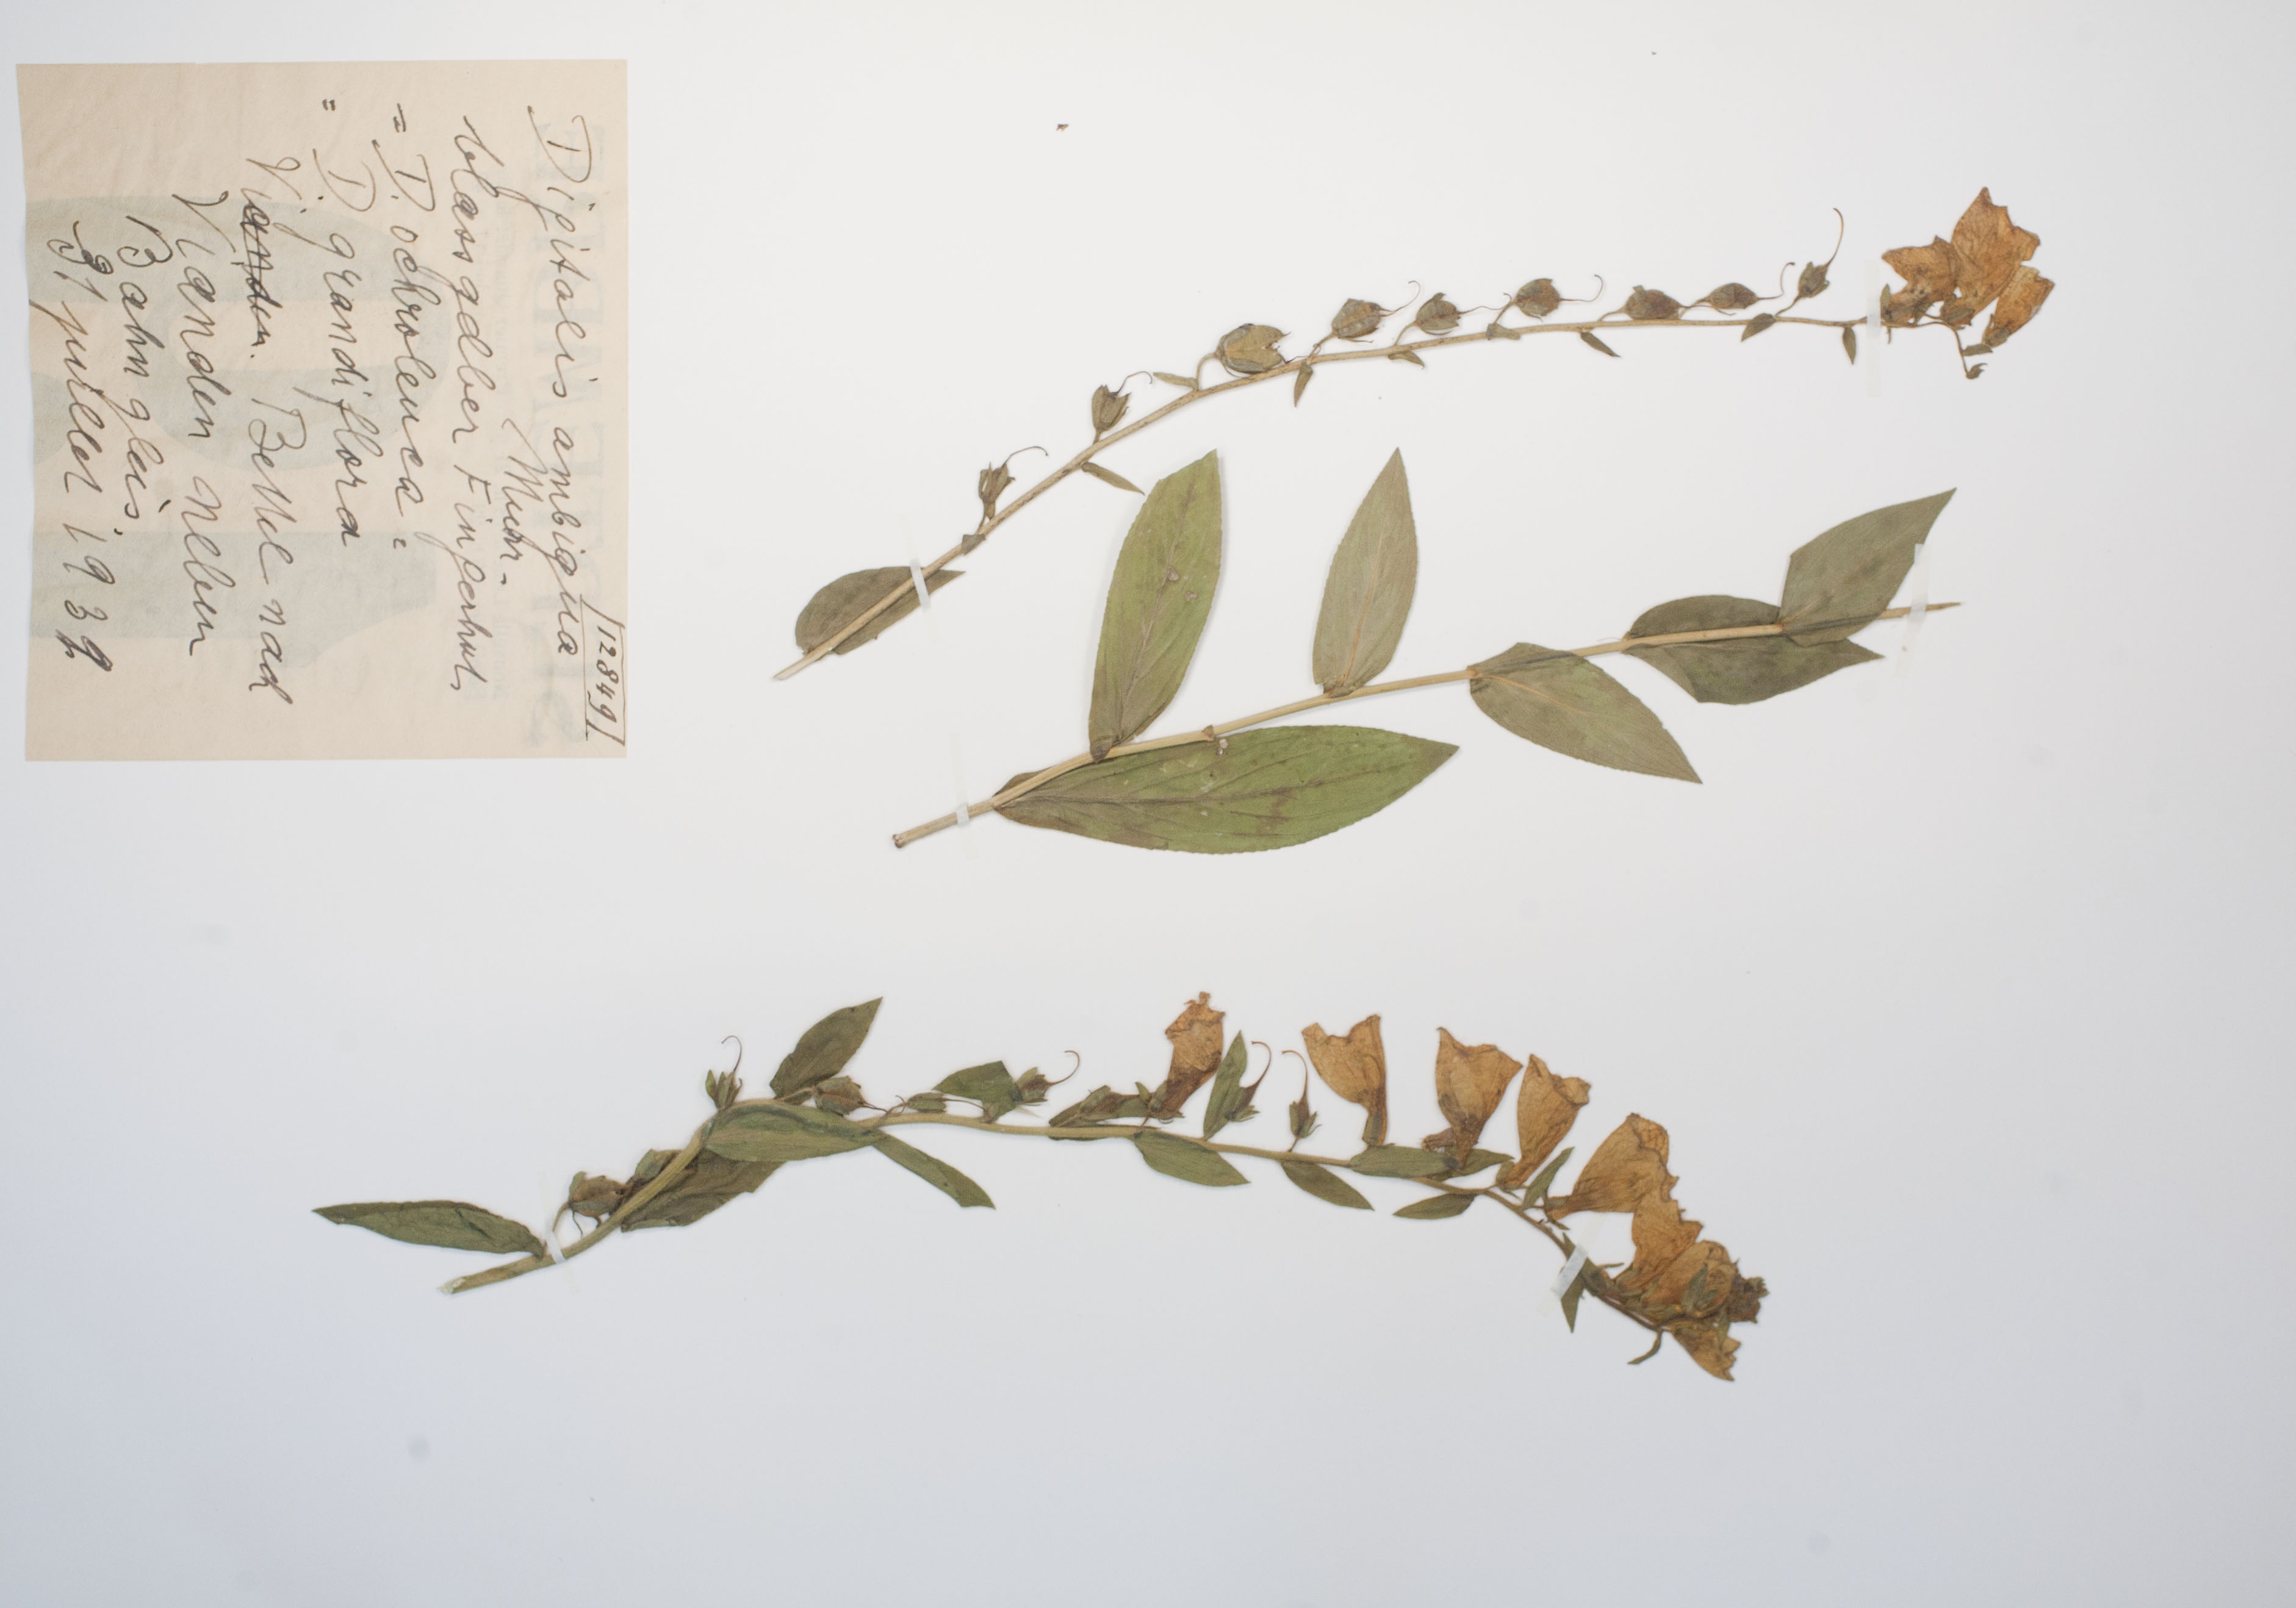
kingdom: Plantae
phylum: Tracheophyta
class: Magnoliopsida
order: Lamiales
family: Plantaginaceae
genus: Digitalis
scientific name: Digitalis grandiflora
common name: Yellow foxglove
